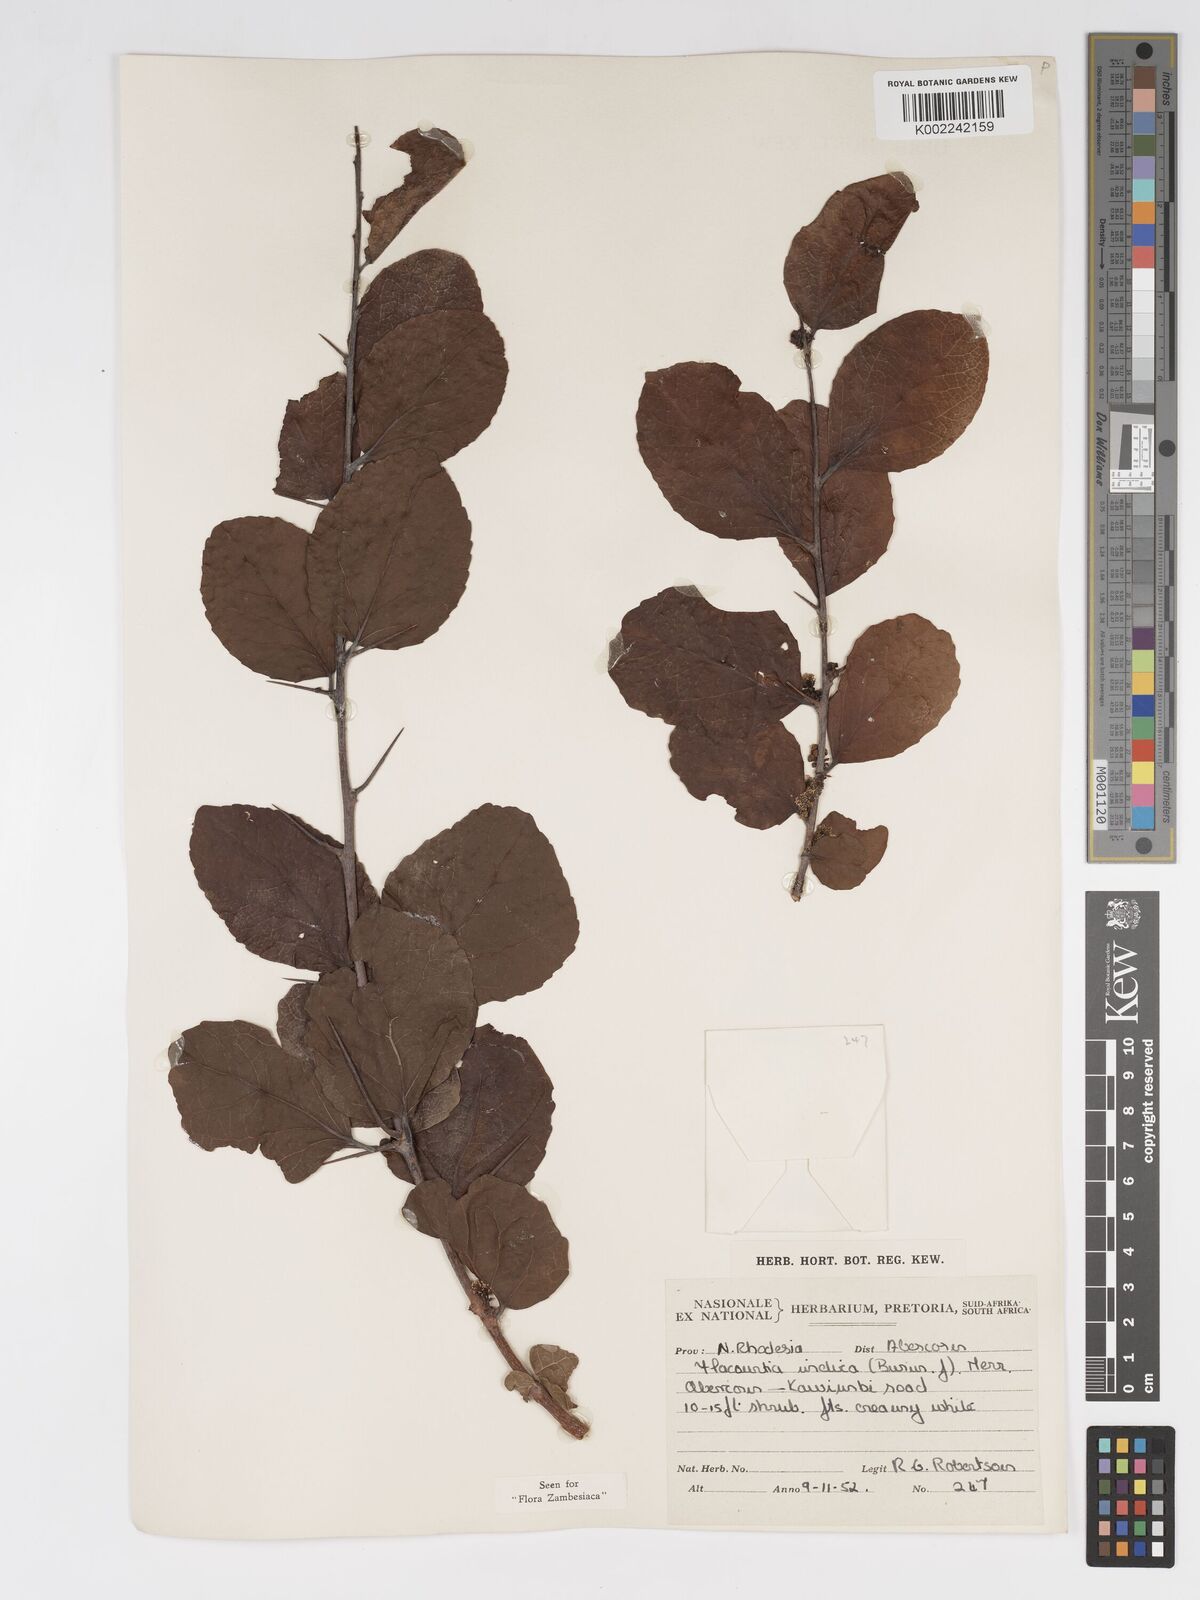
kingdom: Plantae
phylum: Tracheophyta
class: Magnoliopsida
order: Malpighiales
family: Salicaceae
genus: Flacourtia
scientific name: Flacourtia indica
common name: Governor's plum
